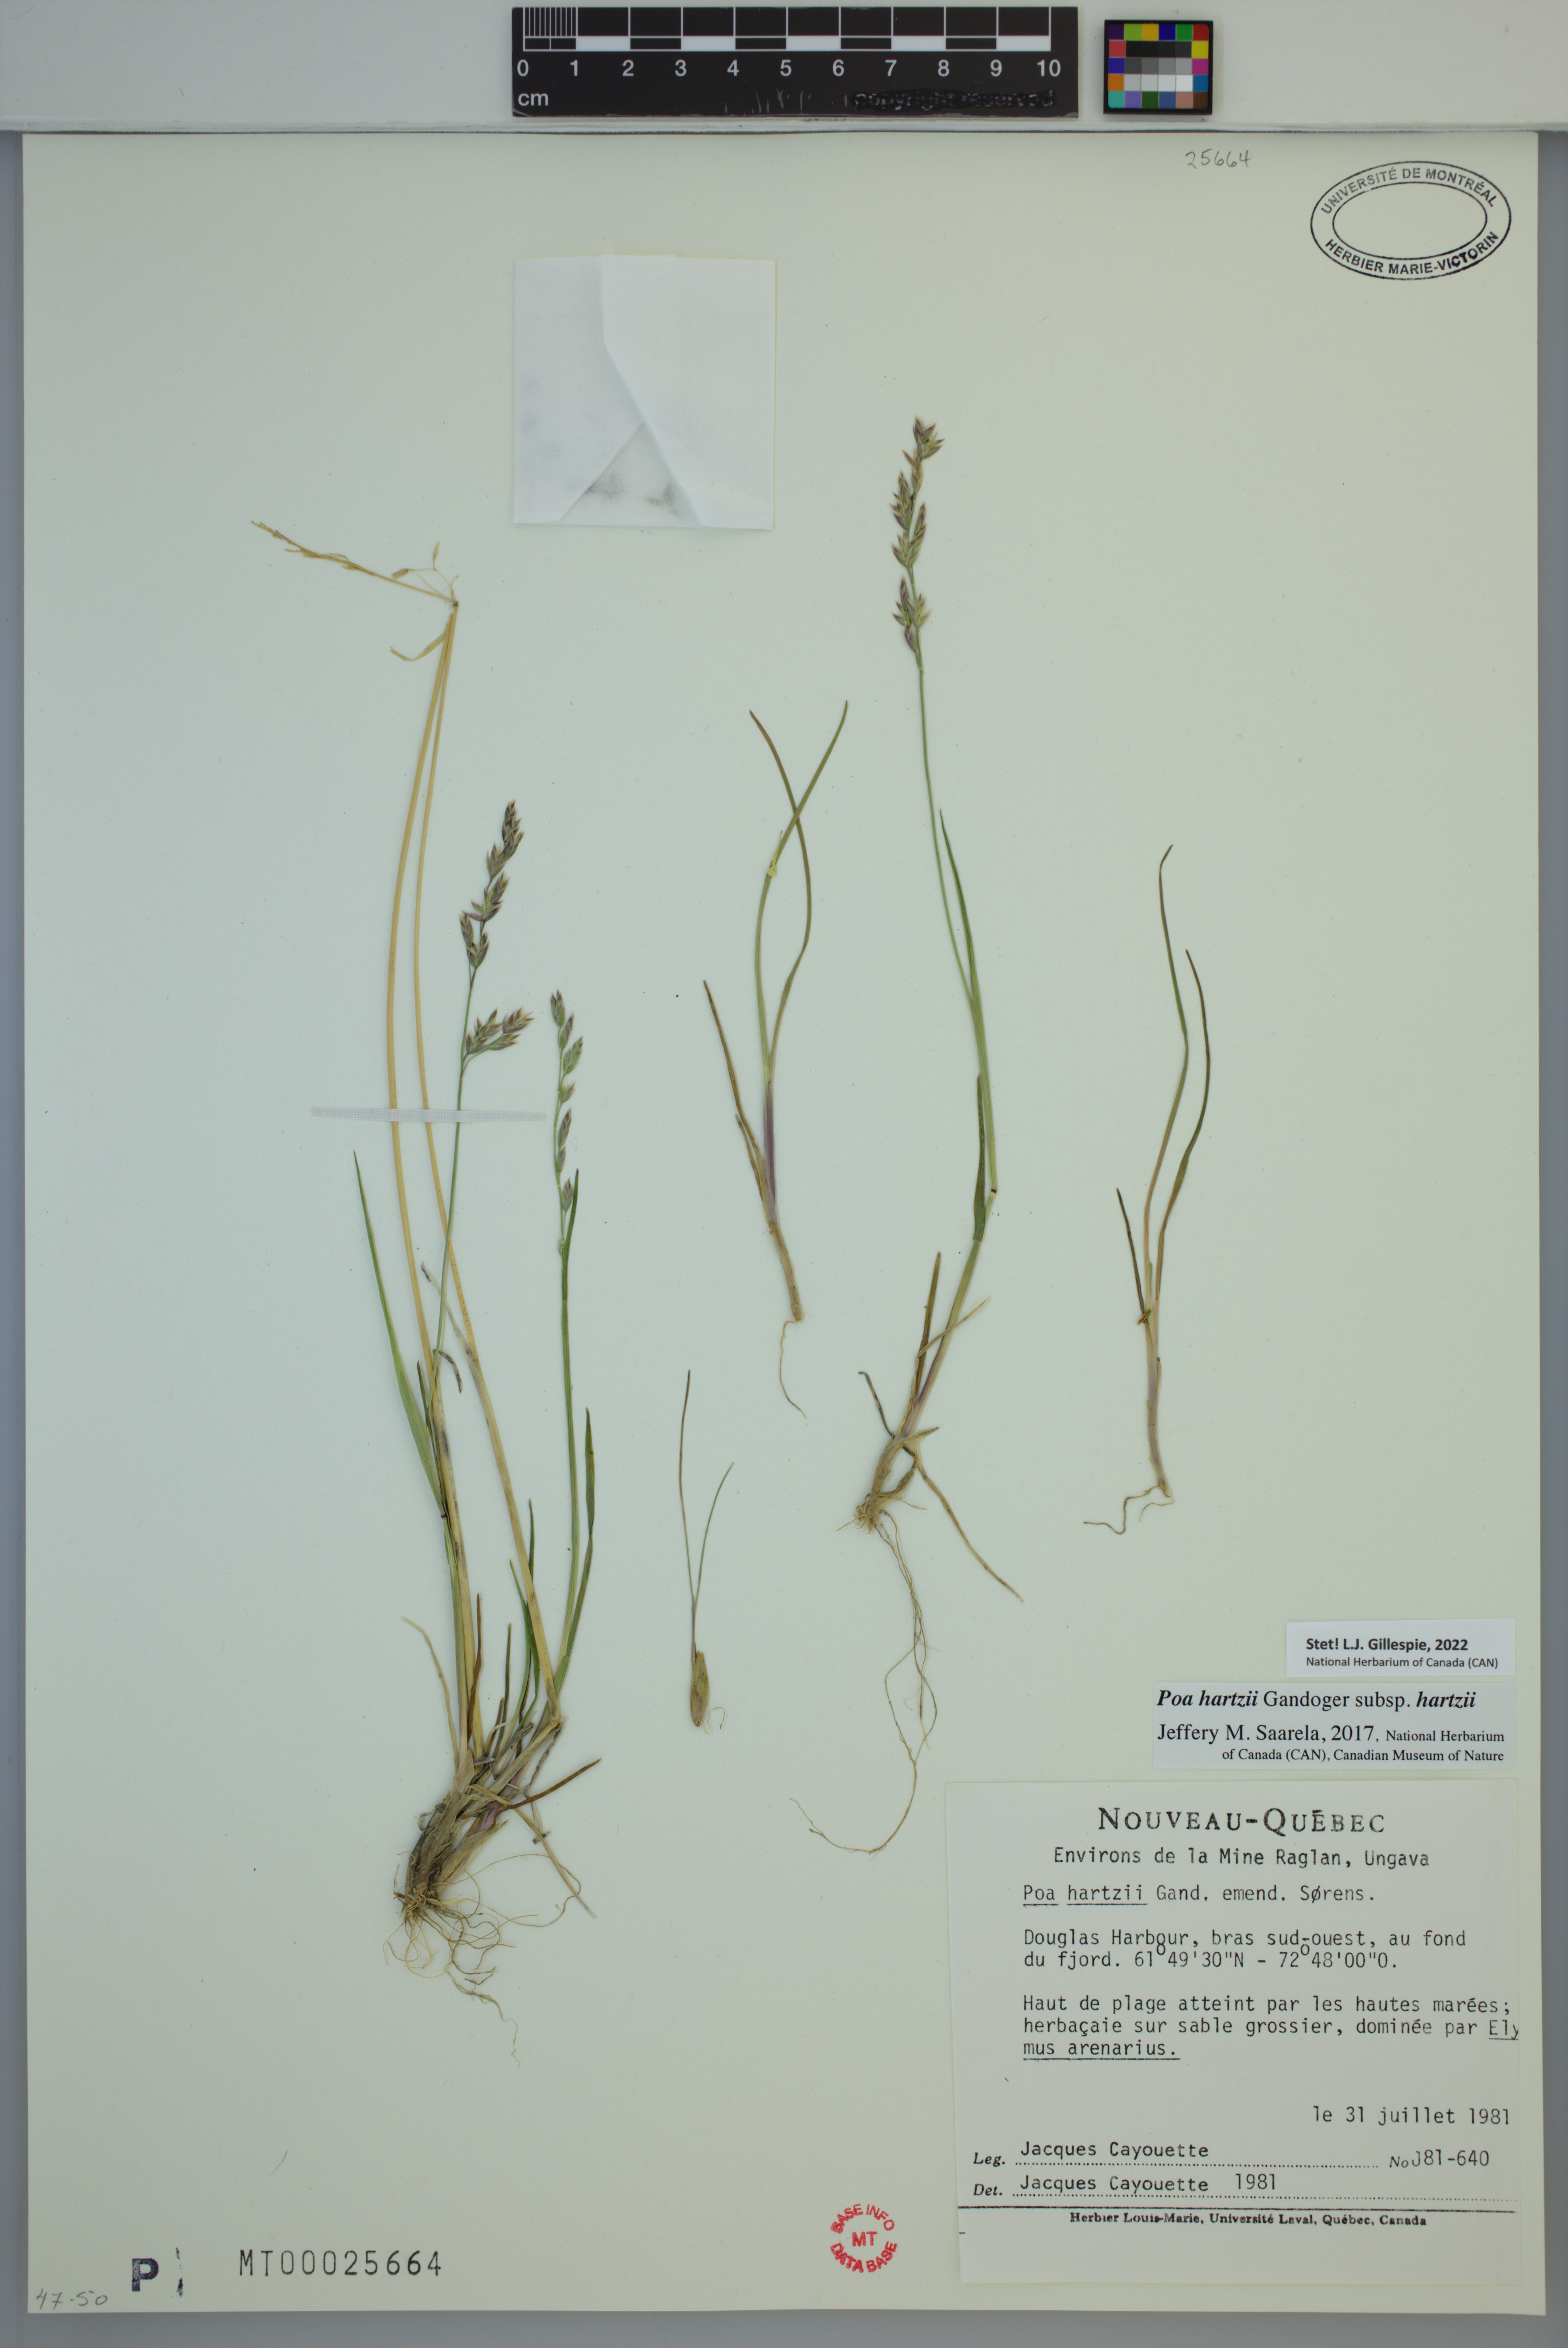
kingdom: Plantae
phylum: Tracheophyta
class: Liliopsida
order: Poales
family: Poaceae
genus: Poa
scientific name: Poa hartzii
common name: Hartz's bluegrass
